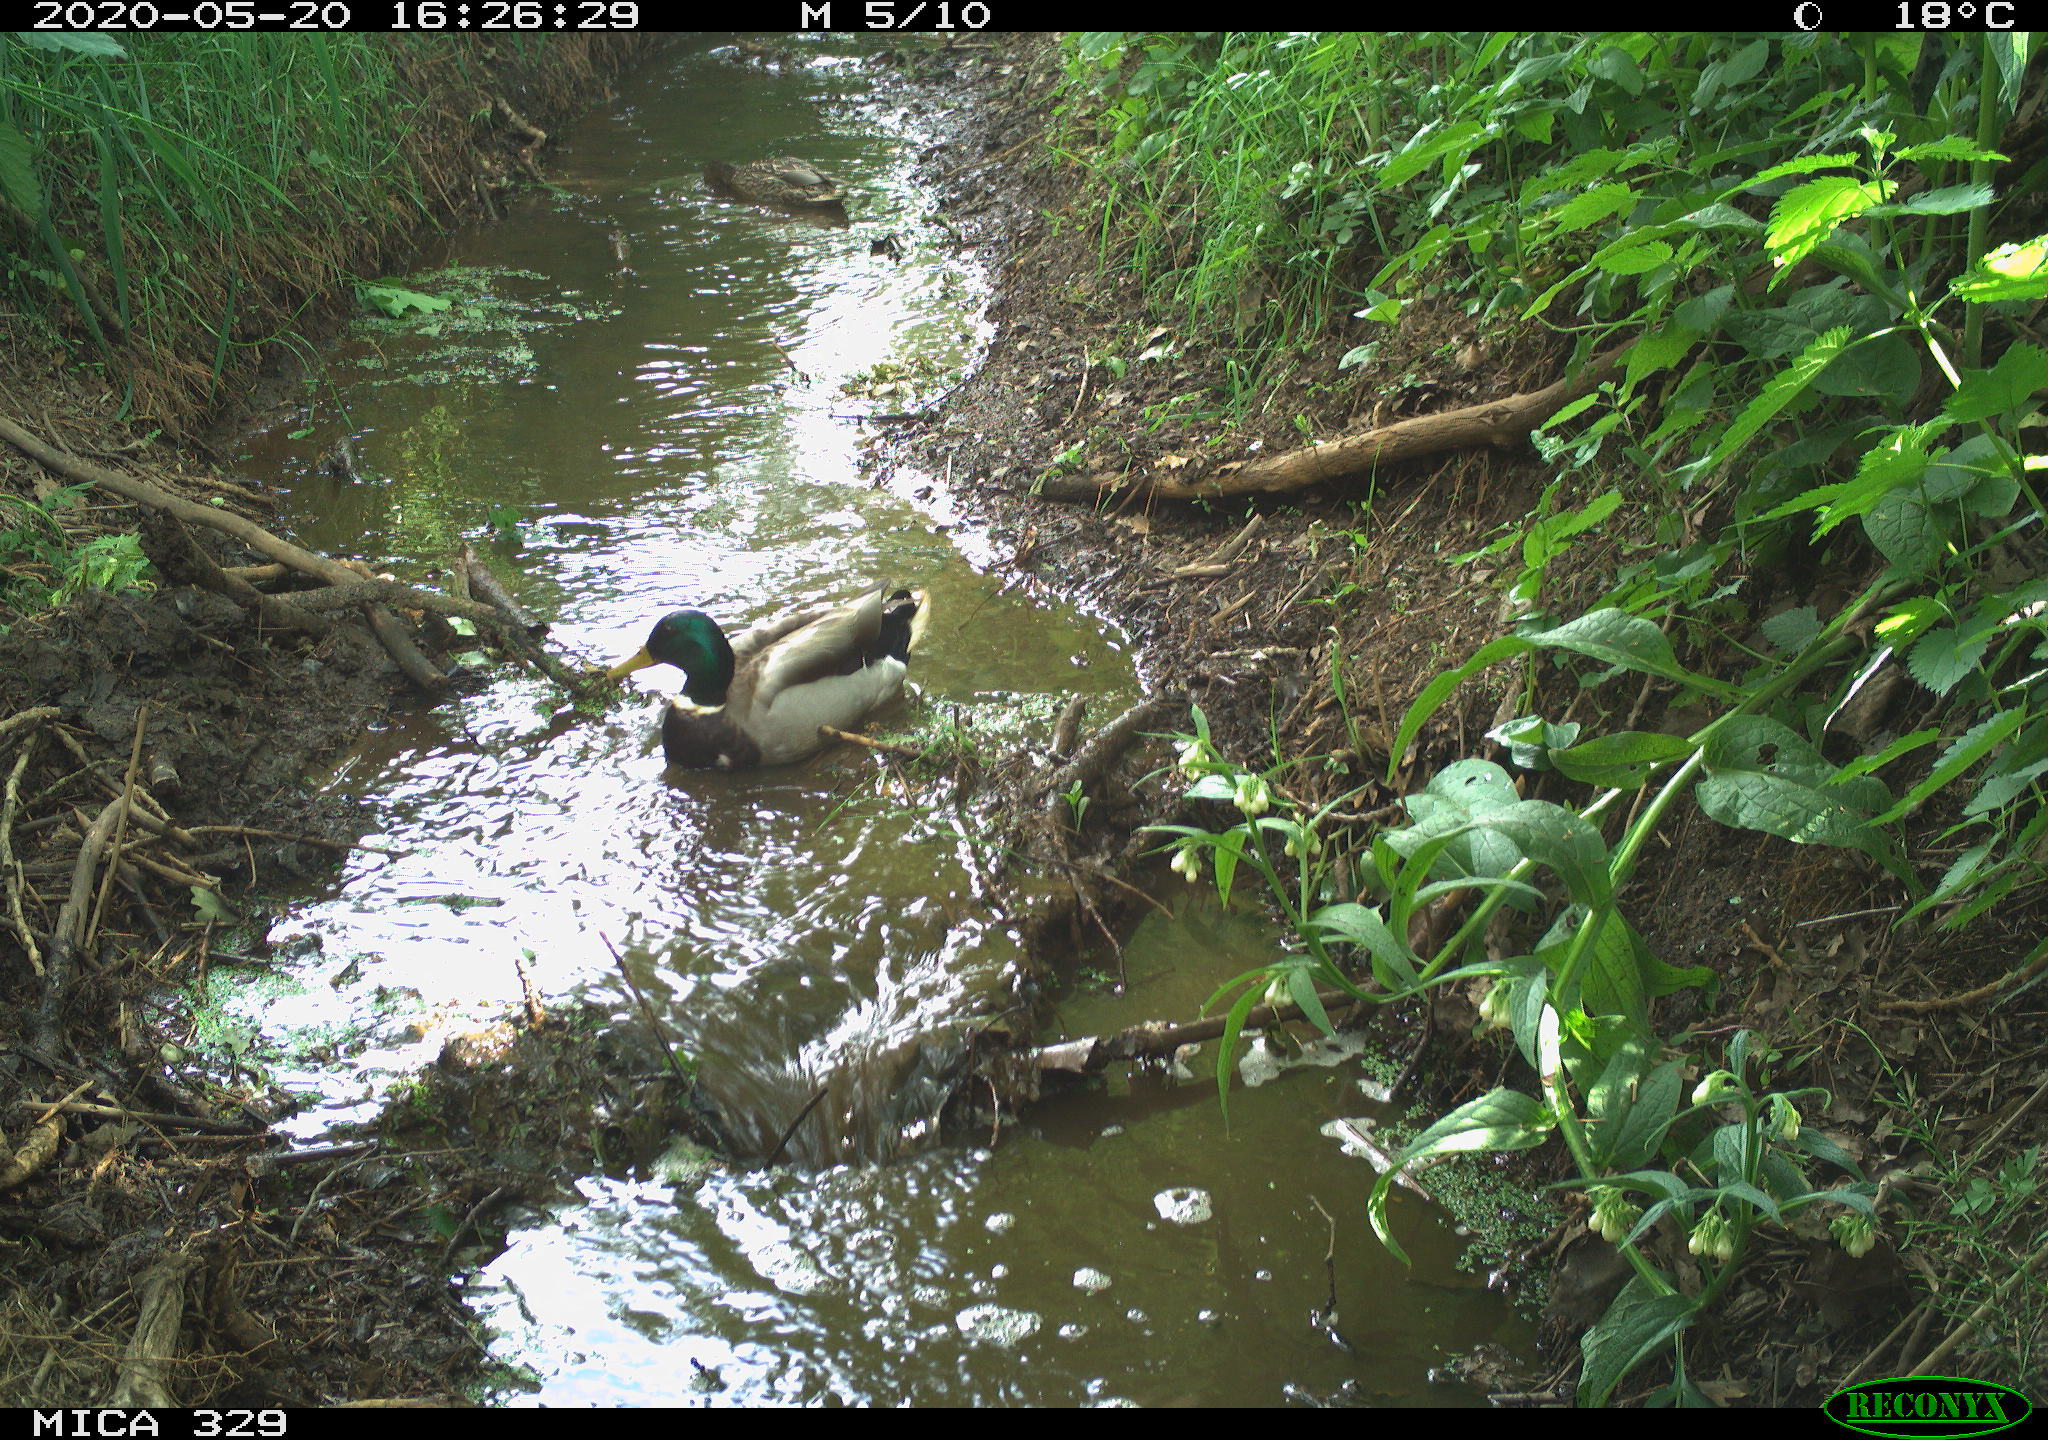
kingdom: Animalia
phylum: Chordata
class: Aves
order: Anseriformes
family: Anatidae
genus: Anas
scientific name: Anas platyrhynchos
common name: Mallard
